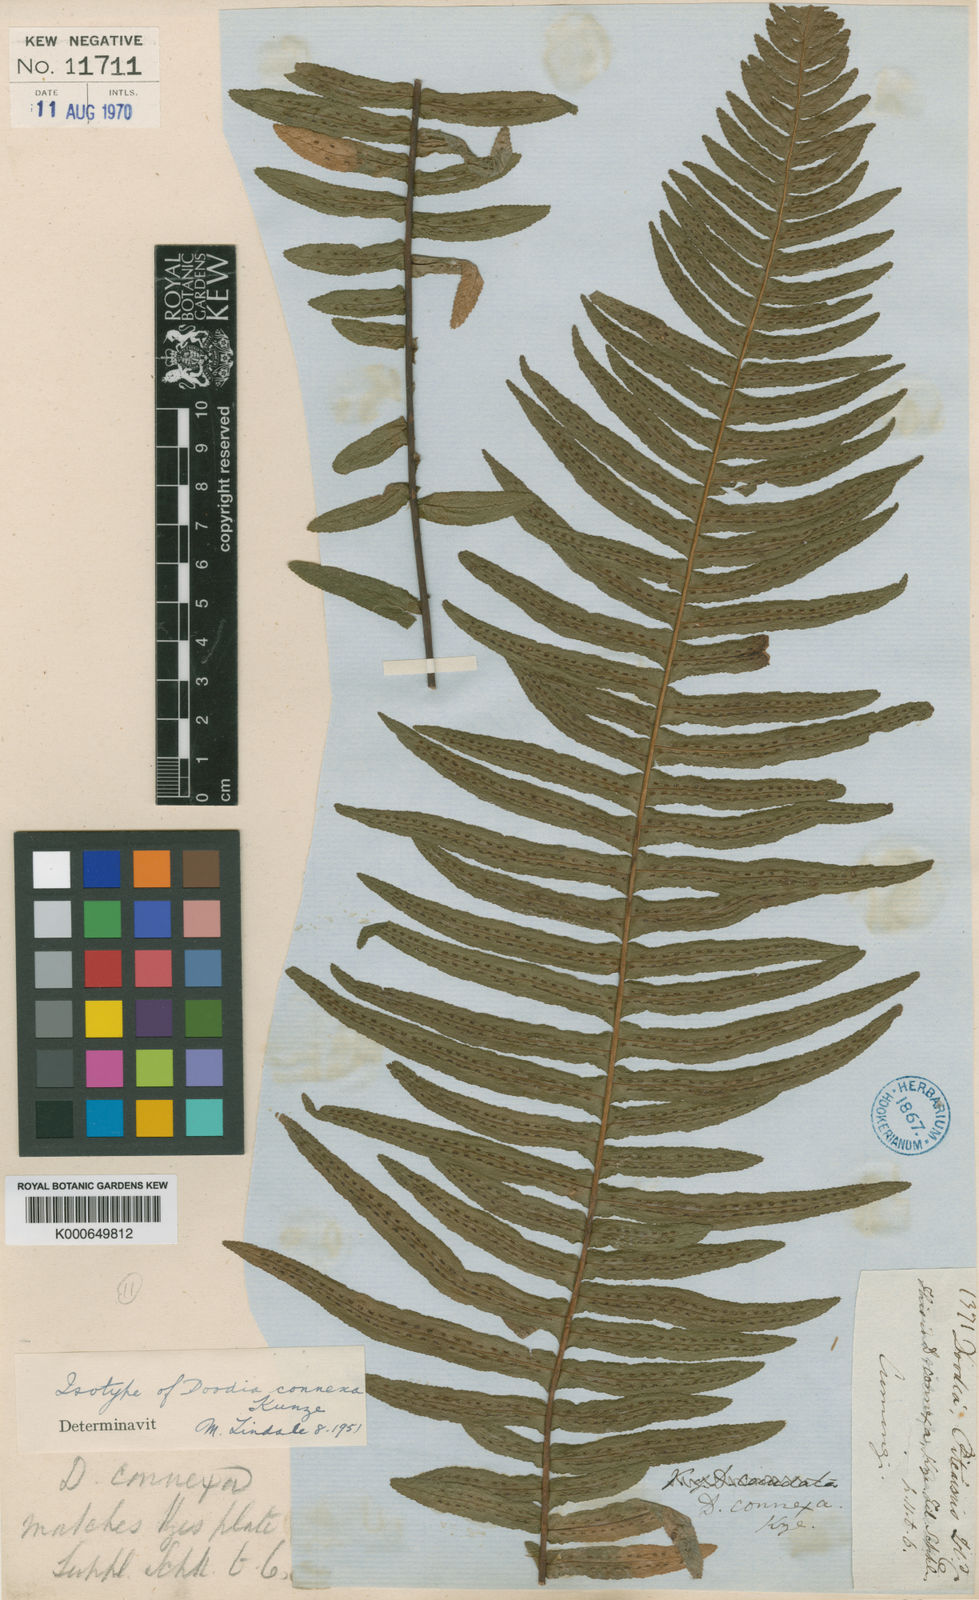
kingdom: Plantae
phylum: Tracheophyta
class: Polypodiopsida
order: Polypodiales
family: Blechnaceae
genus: Doodia
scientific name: Doodia media
